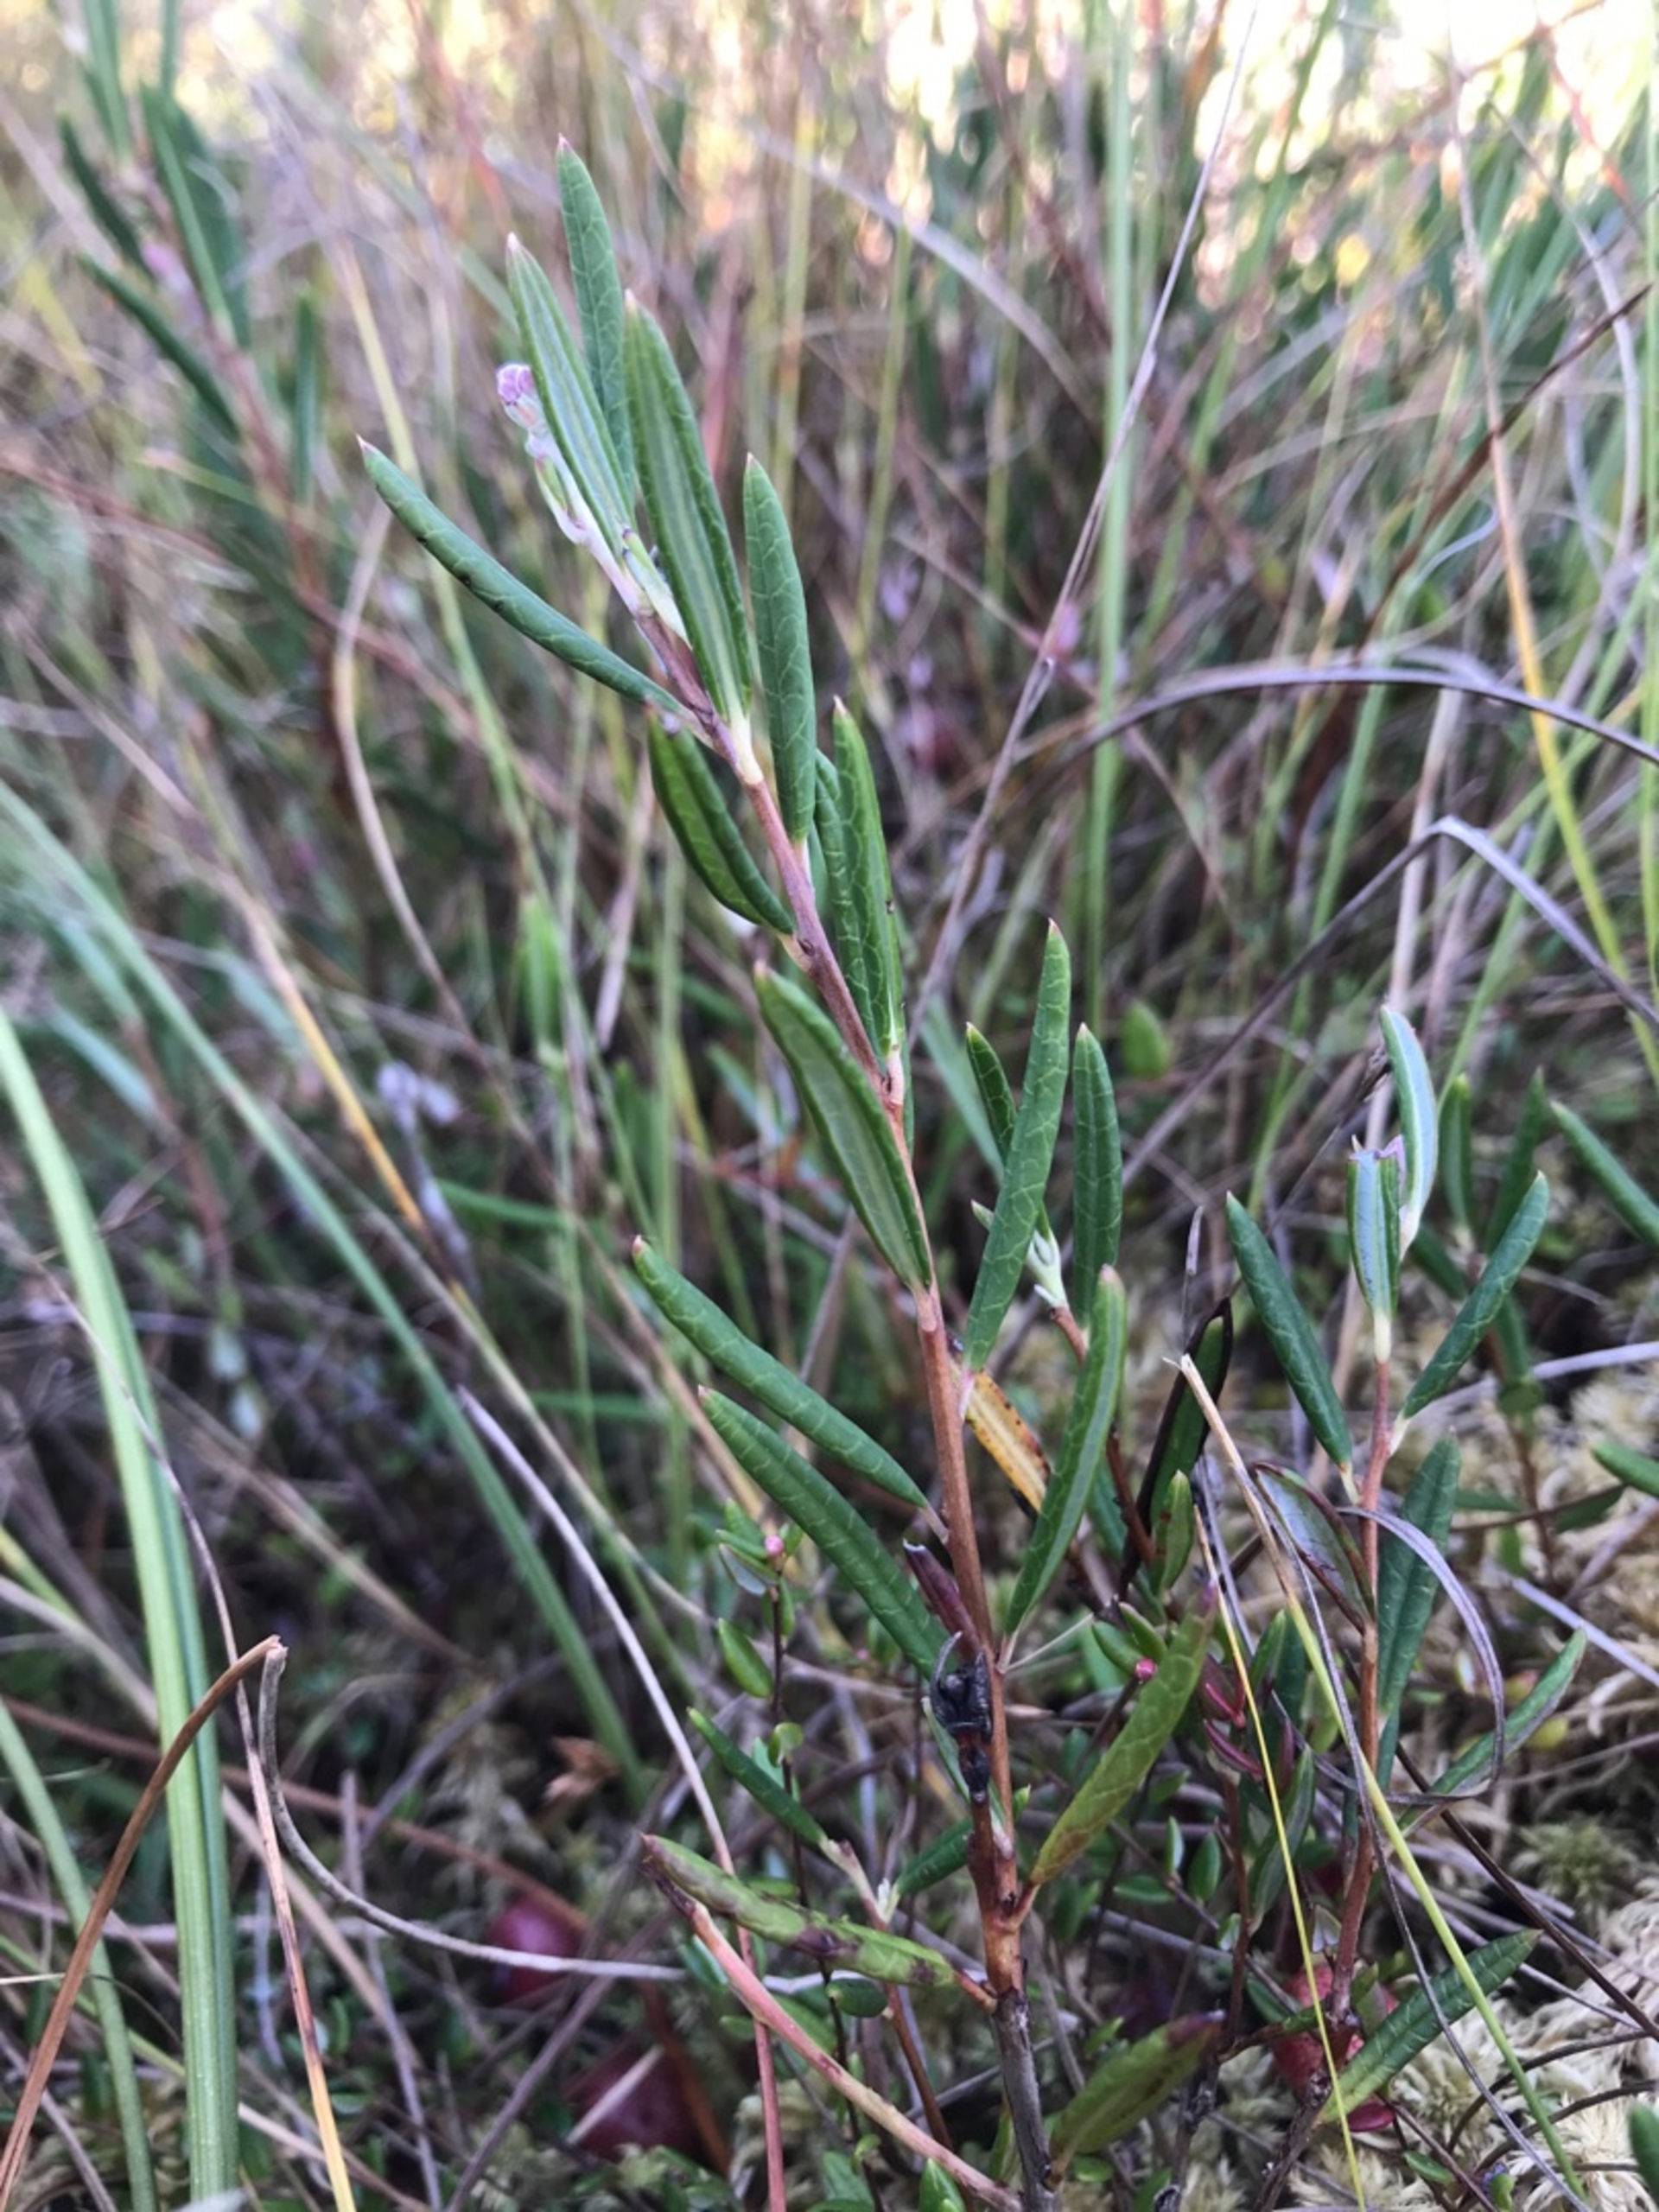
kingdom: Plantae
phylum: Tracheophyta
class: Magnoliopsida
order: Ericales
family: Ericaceae
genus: Andromeda
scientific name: Andromeda polifolia
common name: Rosmarinlyng
